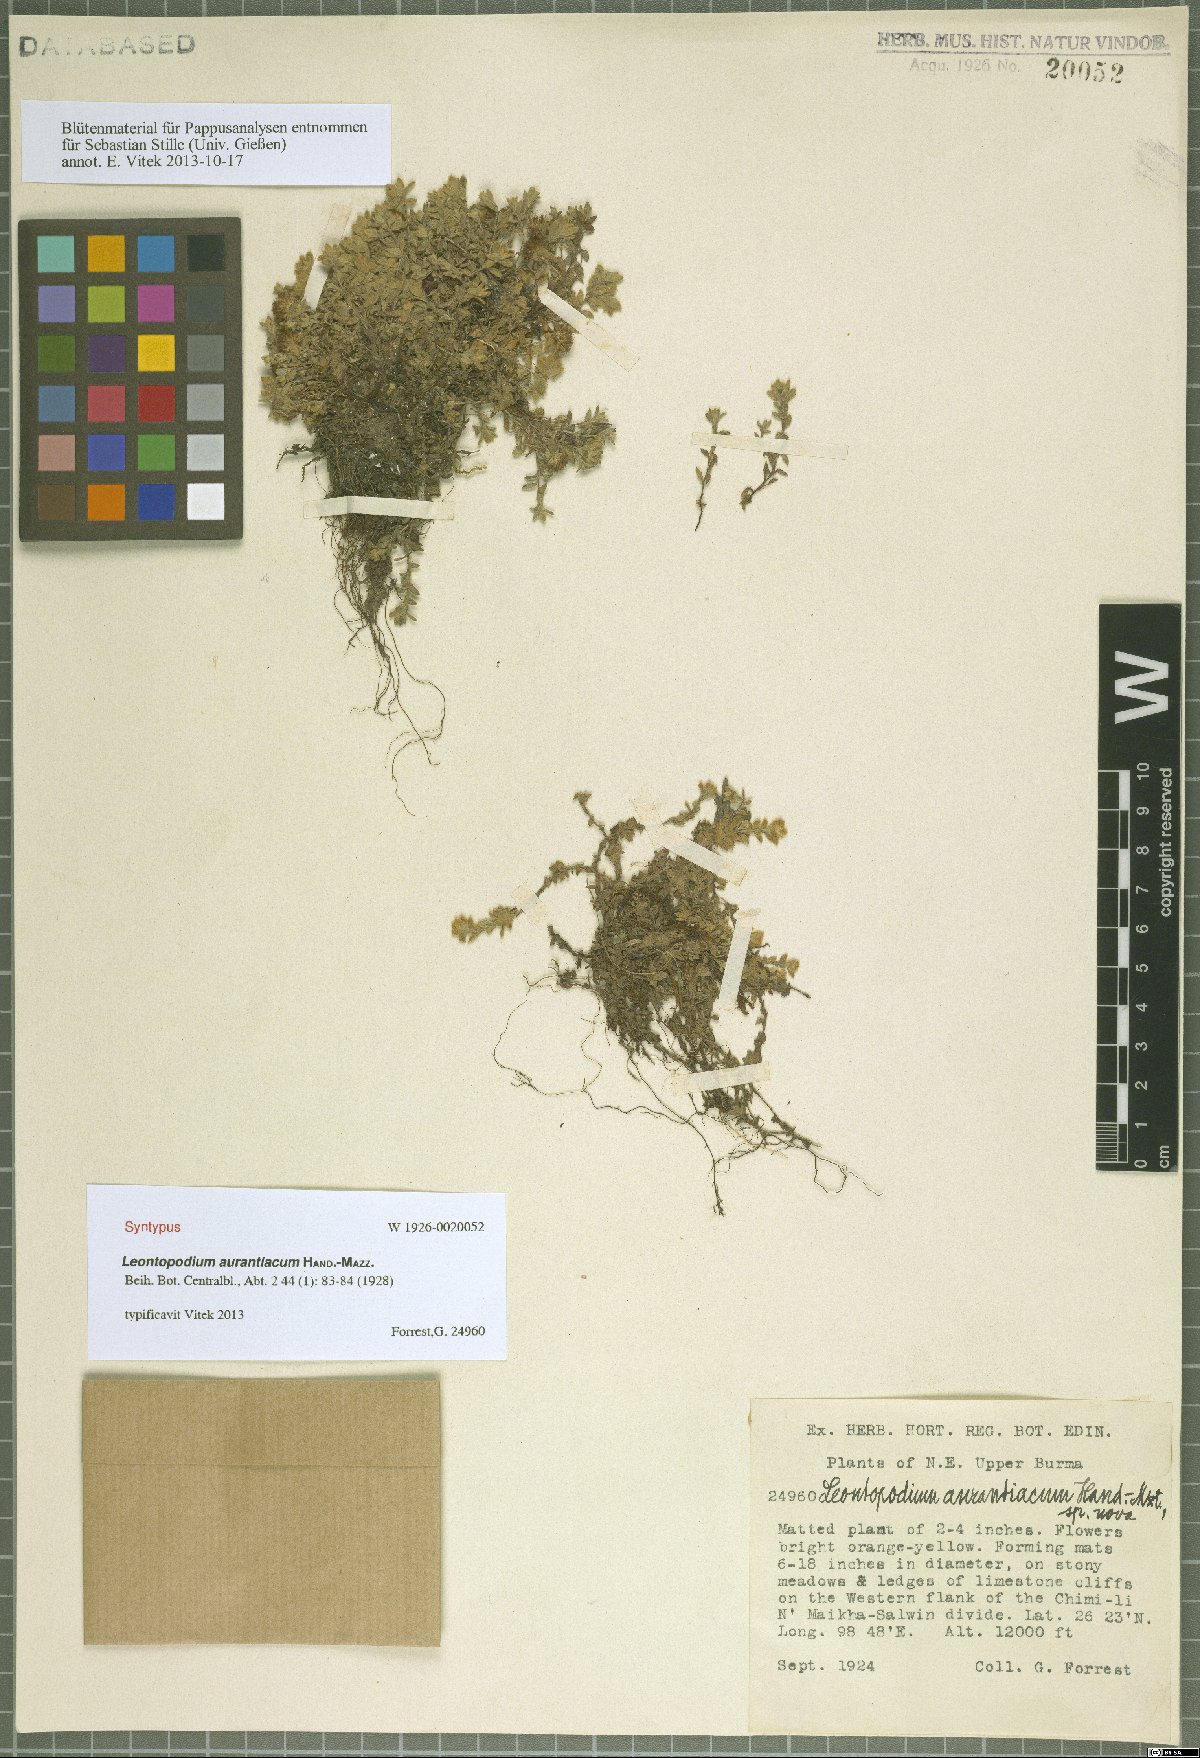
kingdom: Plantae
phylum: Tracheophyta
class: Magnoliopsida
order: Asterales
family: Asteraceae
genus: Leontopodium
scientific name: Leontopodium aurantiacum
